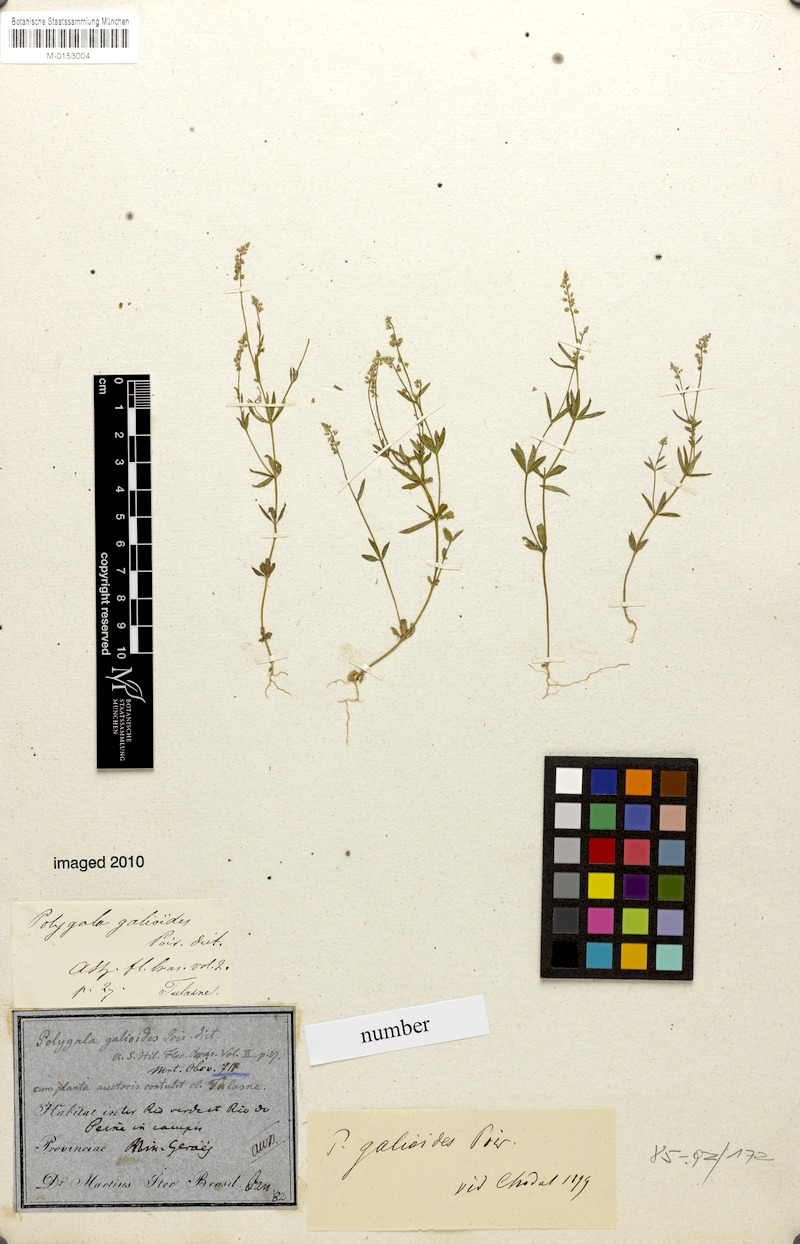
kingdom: Plantae
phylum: Tracheophyta
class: Magnoliopsida
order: Fabales
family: Polygalaceae
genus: Polygala
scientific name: Polygala galioides
